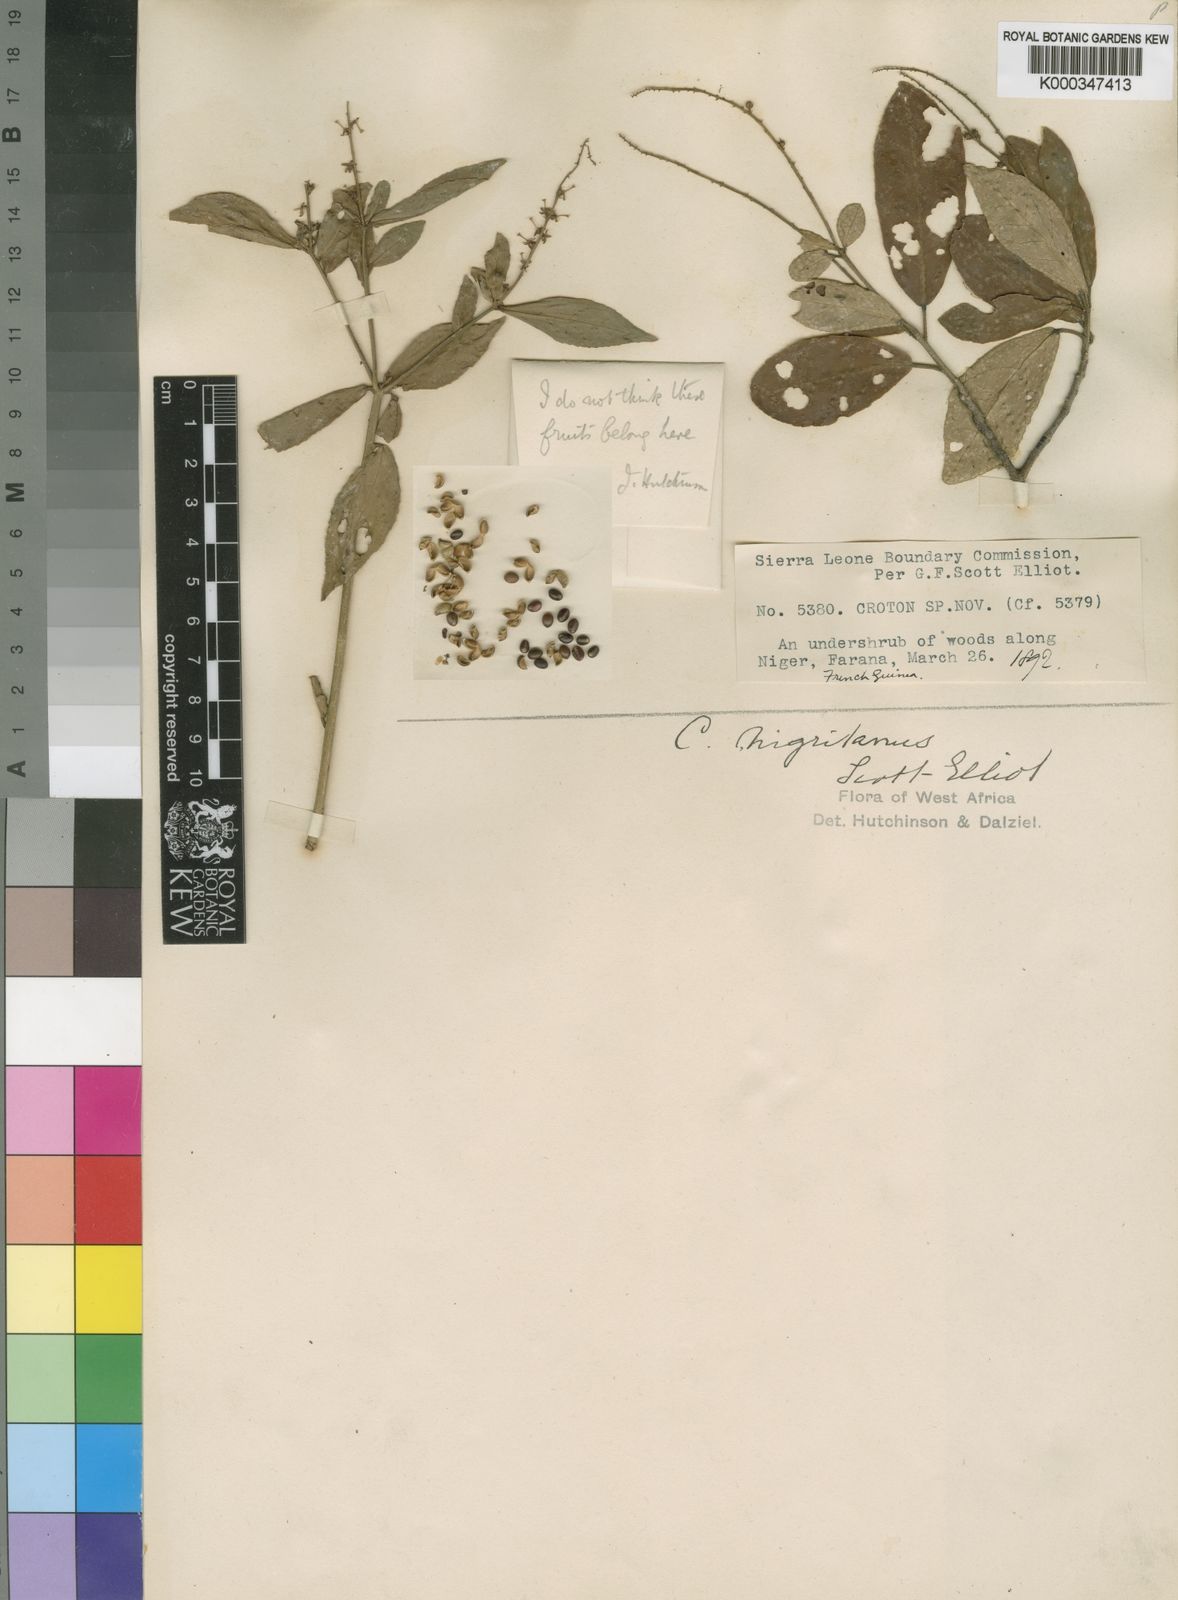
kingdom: Plantae
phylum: Tracheophyta
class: Magnoliopsida
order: Malpighiales
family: Euphorbiaceae
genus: Croton
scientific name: Croton nigritanus
